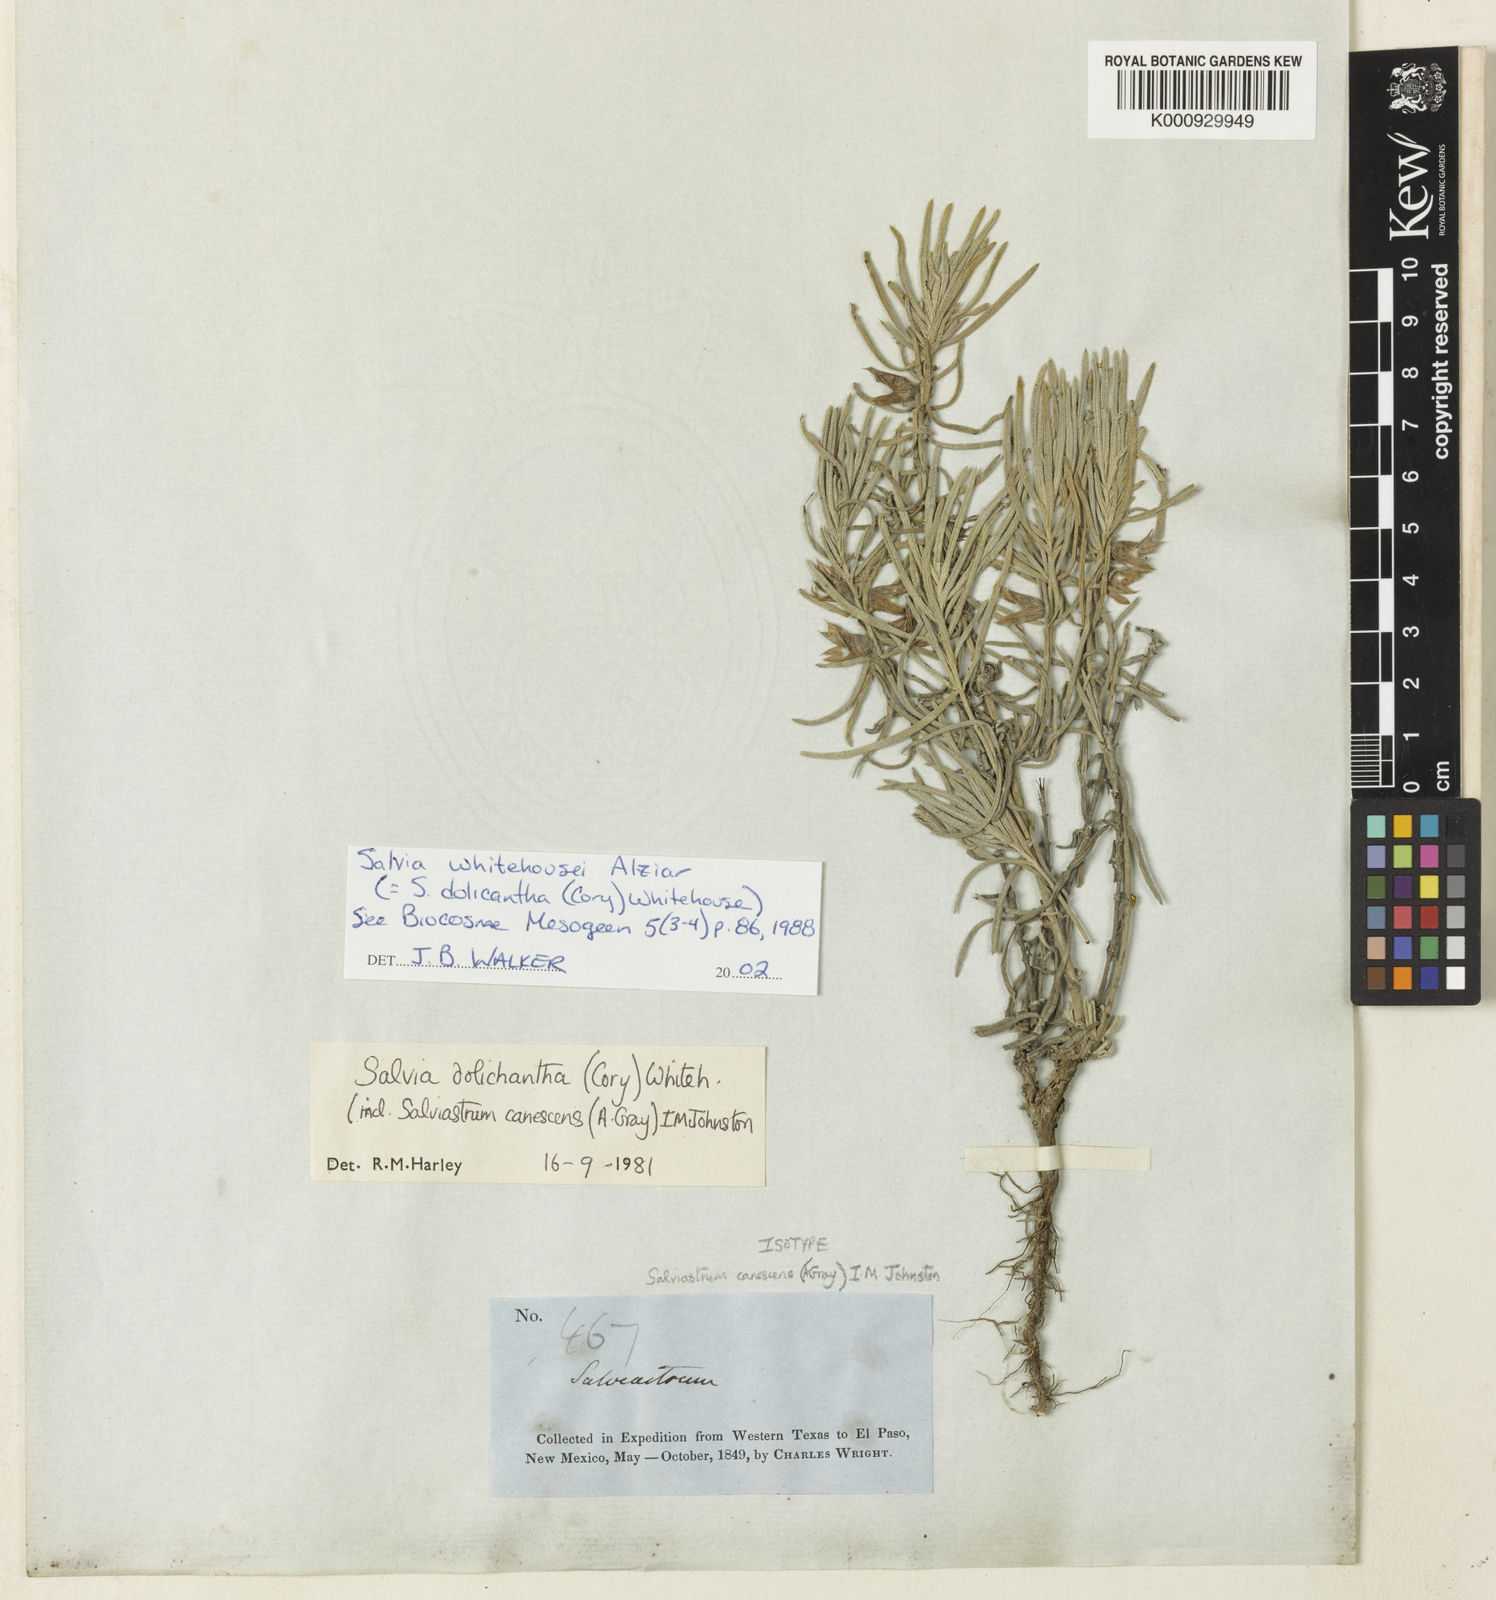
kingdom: Plantae
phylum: Tracheophyta
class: Magnoliopsida
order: Lamiales
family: Lamiaceae
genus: Salvia
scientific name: Salvia
